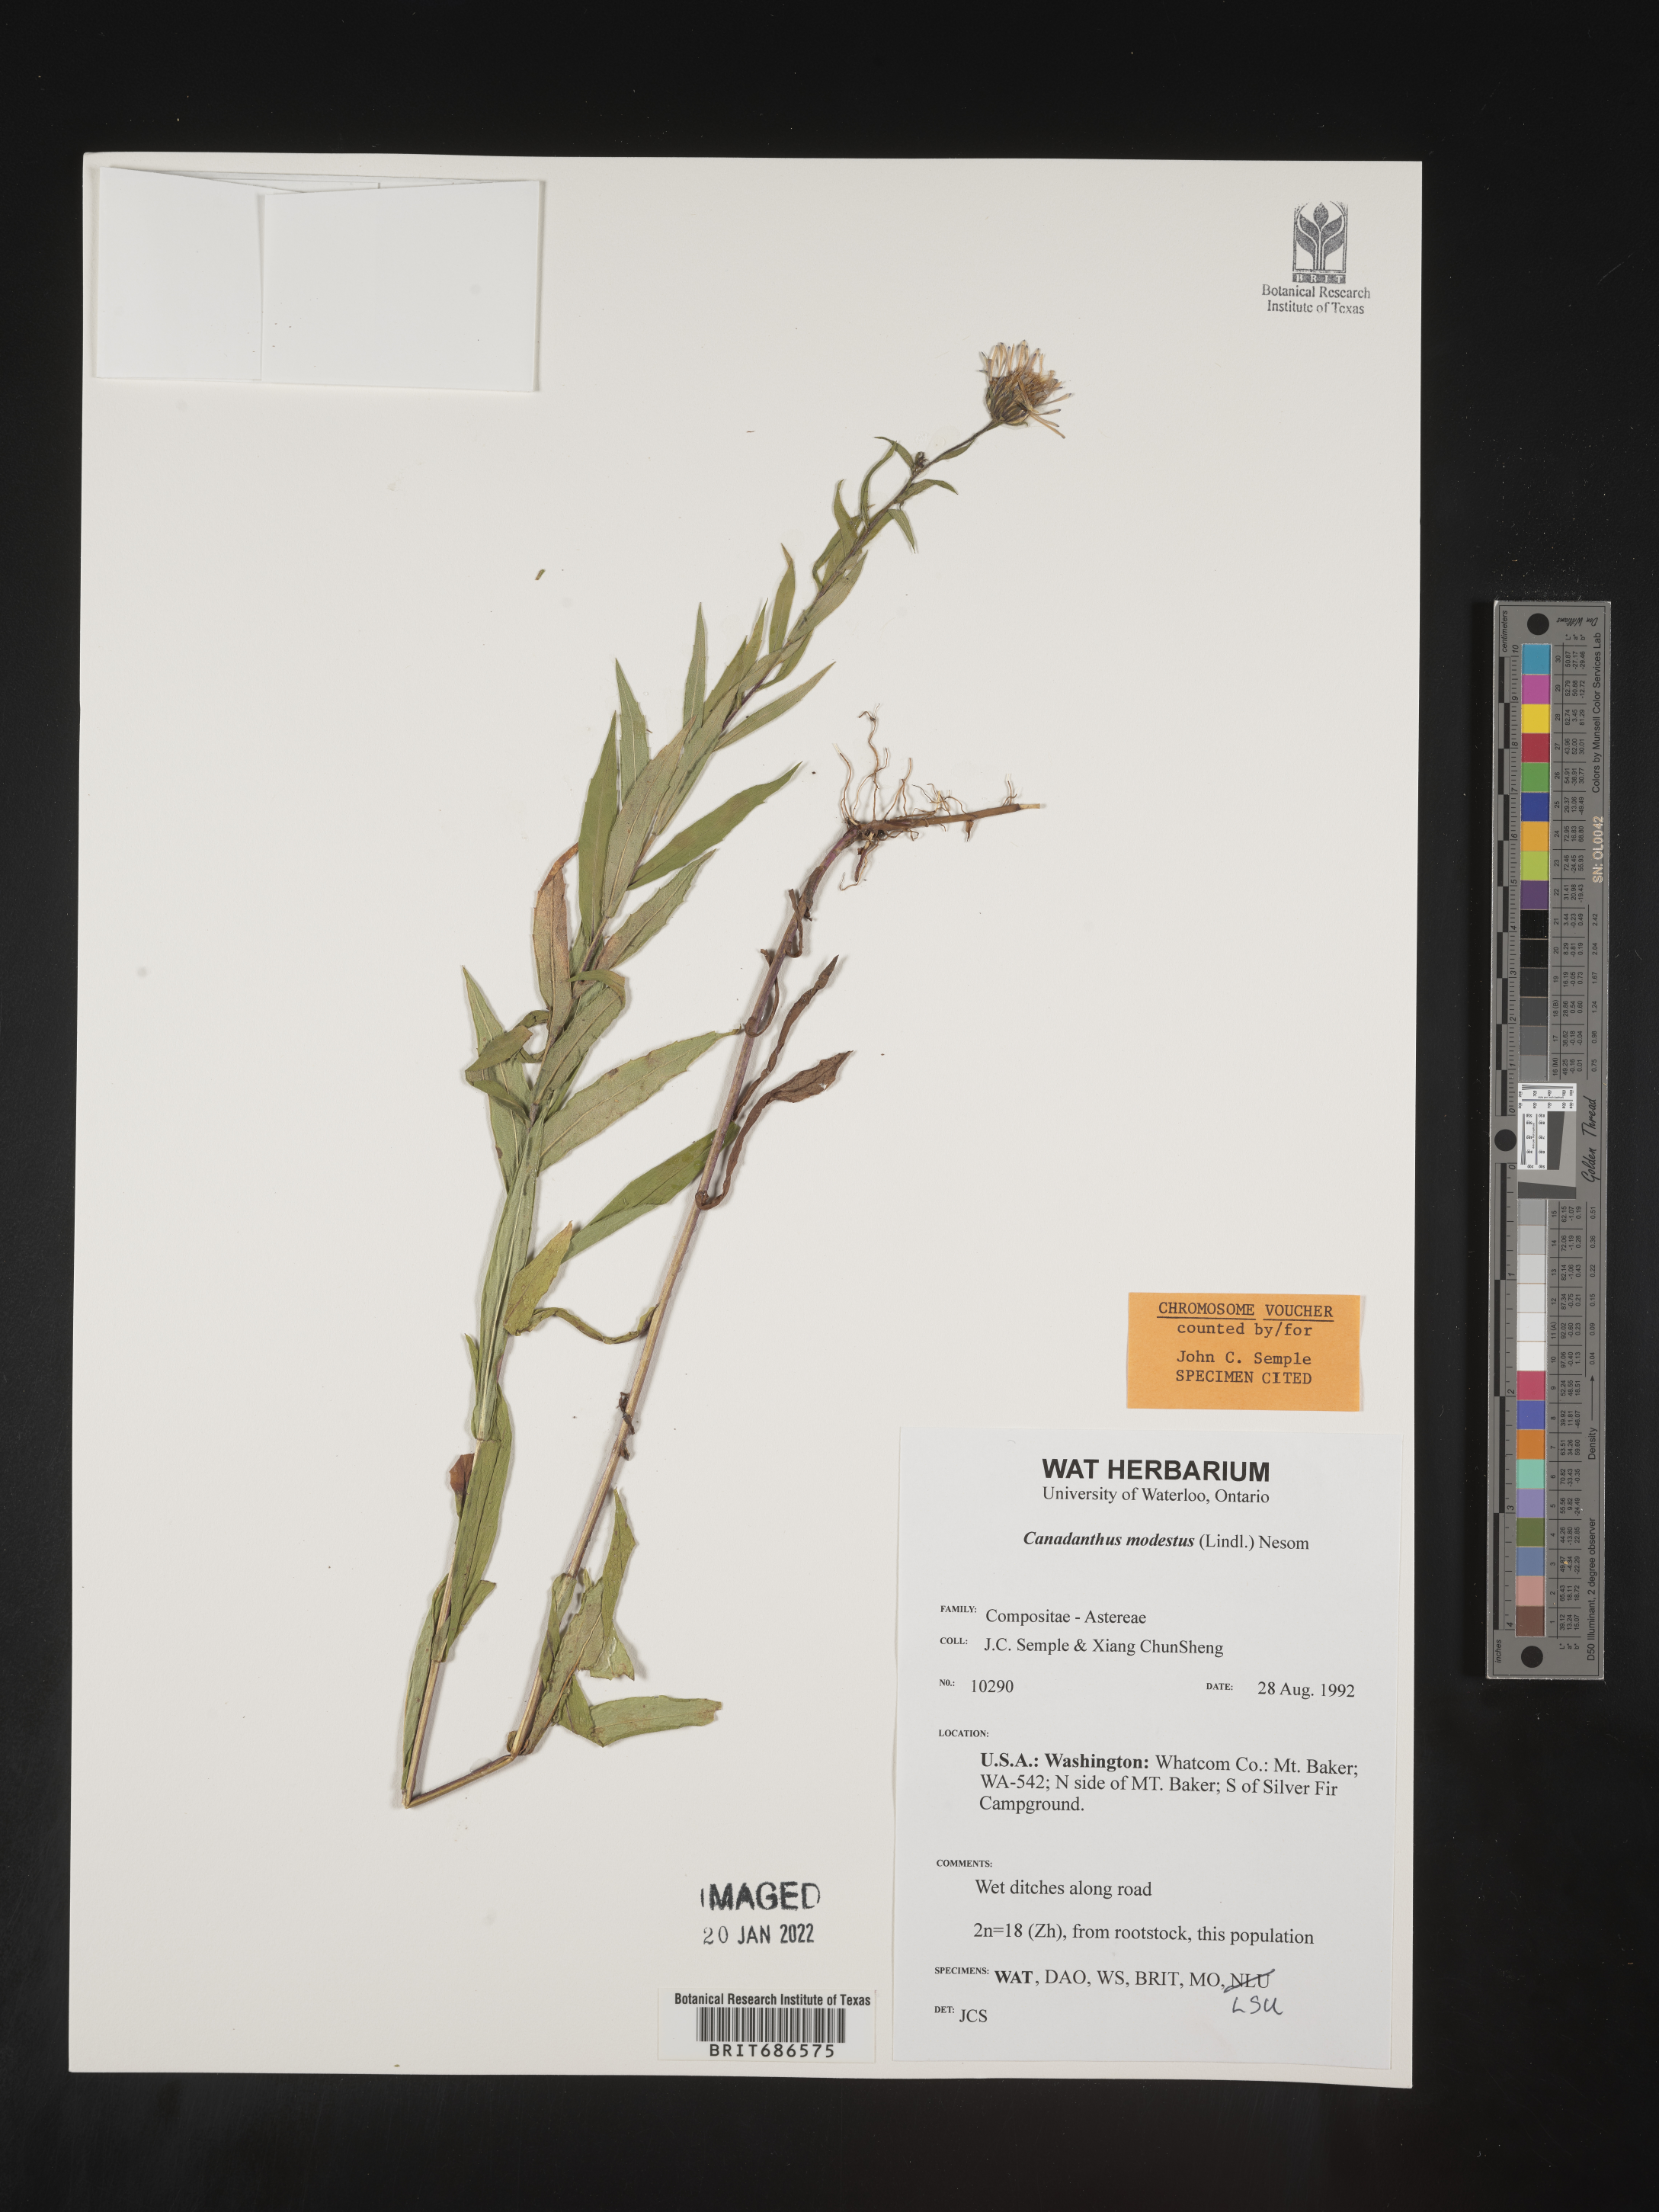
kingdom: Plantae
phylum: Tracheophyta
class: Magnoliopsida
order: Asterales
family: Asteraceae
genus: Canadanthus
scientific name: Canadanthus modestus
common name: Great northern aster
